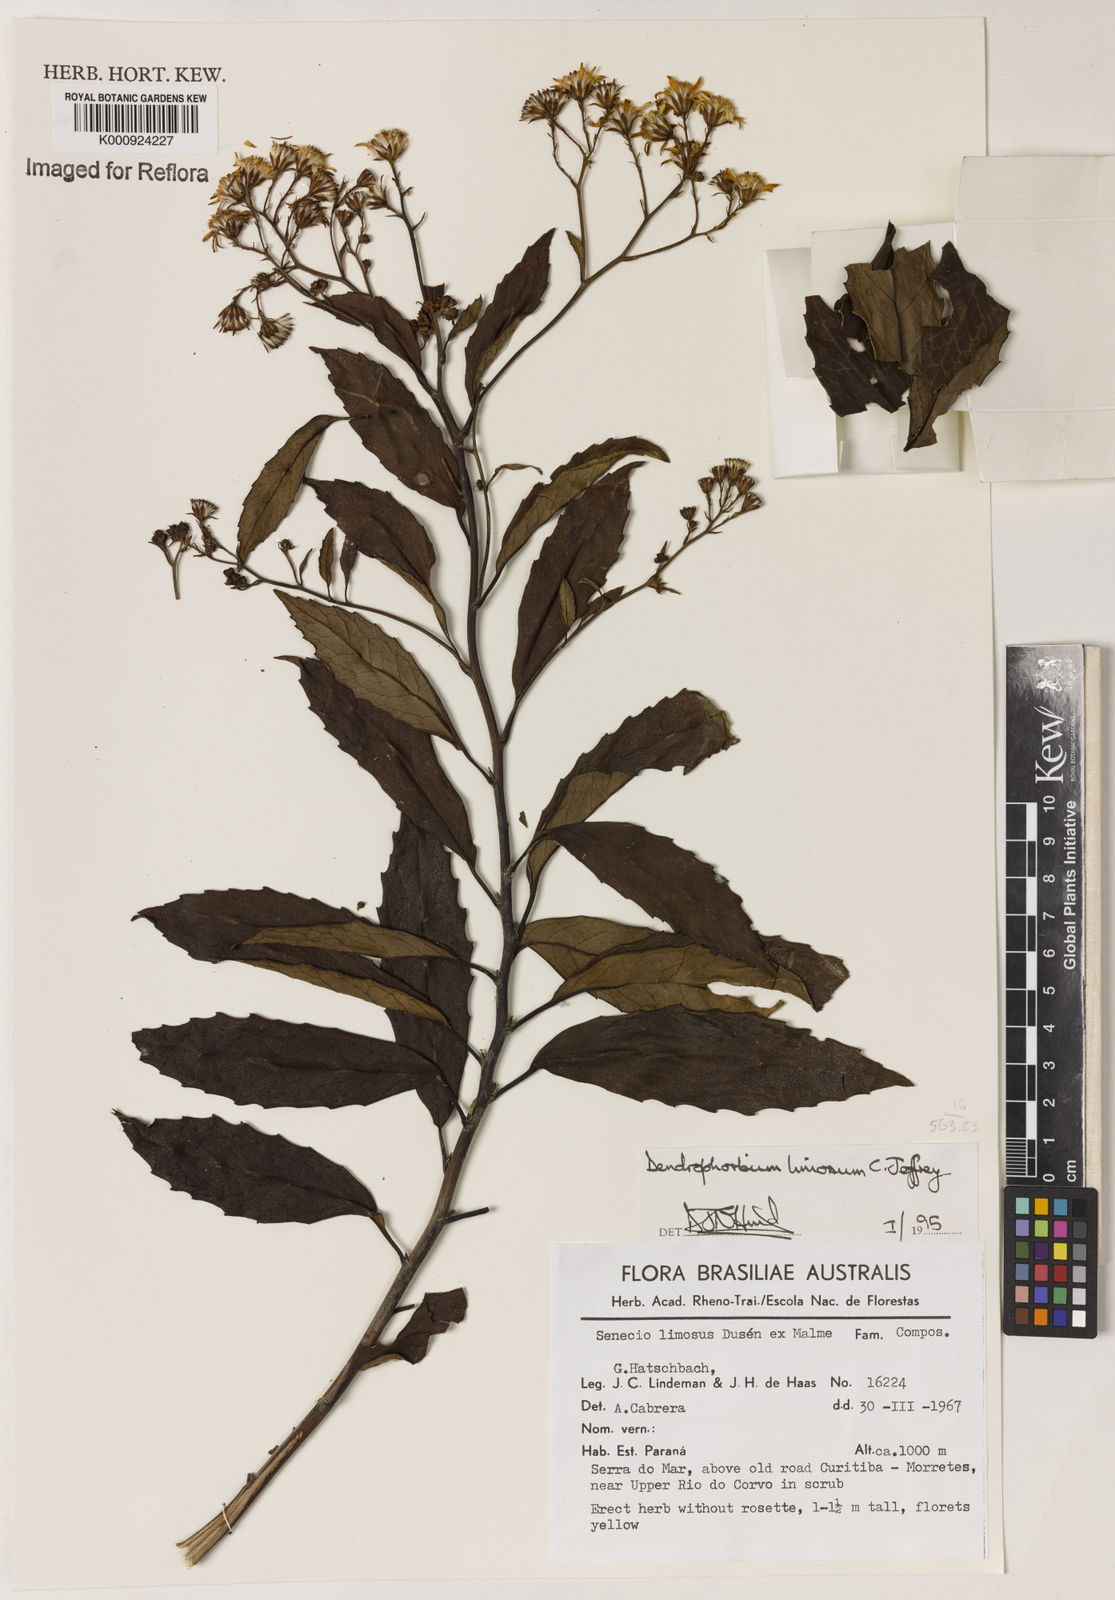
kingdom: Plantae
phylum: Tracheophyta
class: Magnoliopsida
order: Asterales
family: Asteraceae
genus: Dendrophorbium
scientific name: Dendrophorbium limosum
